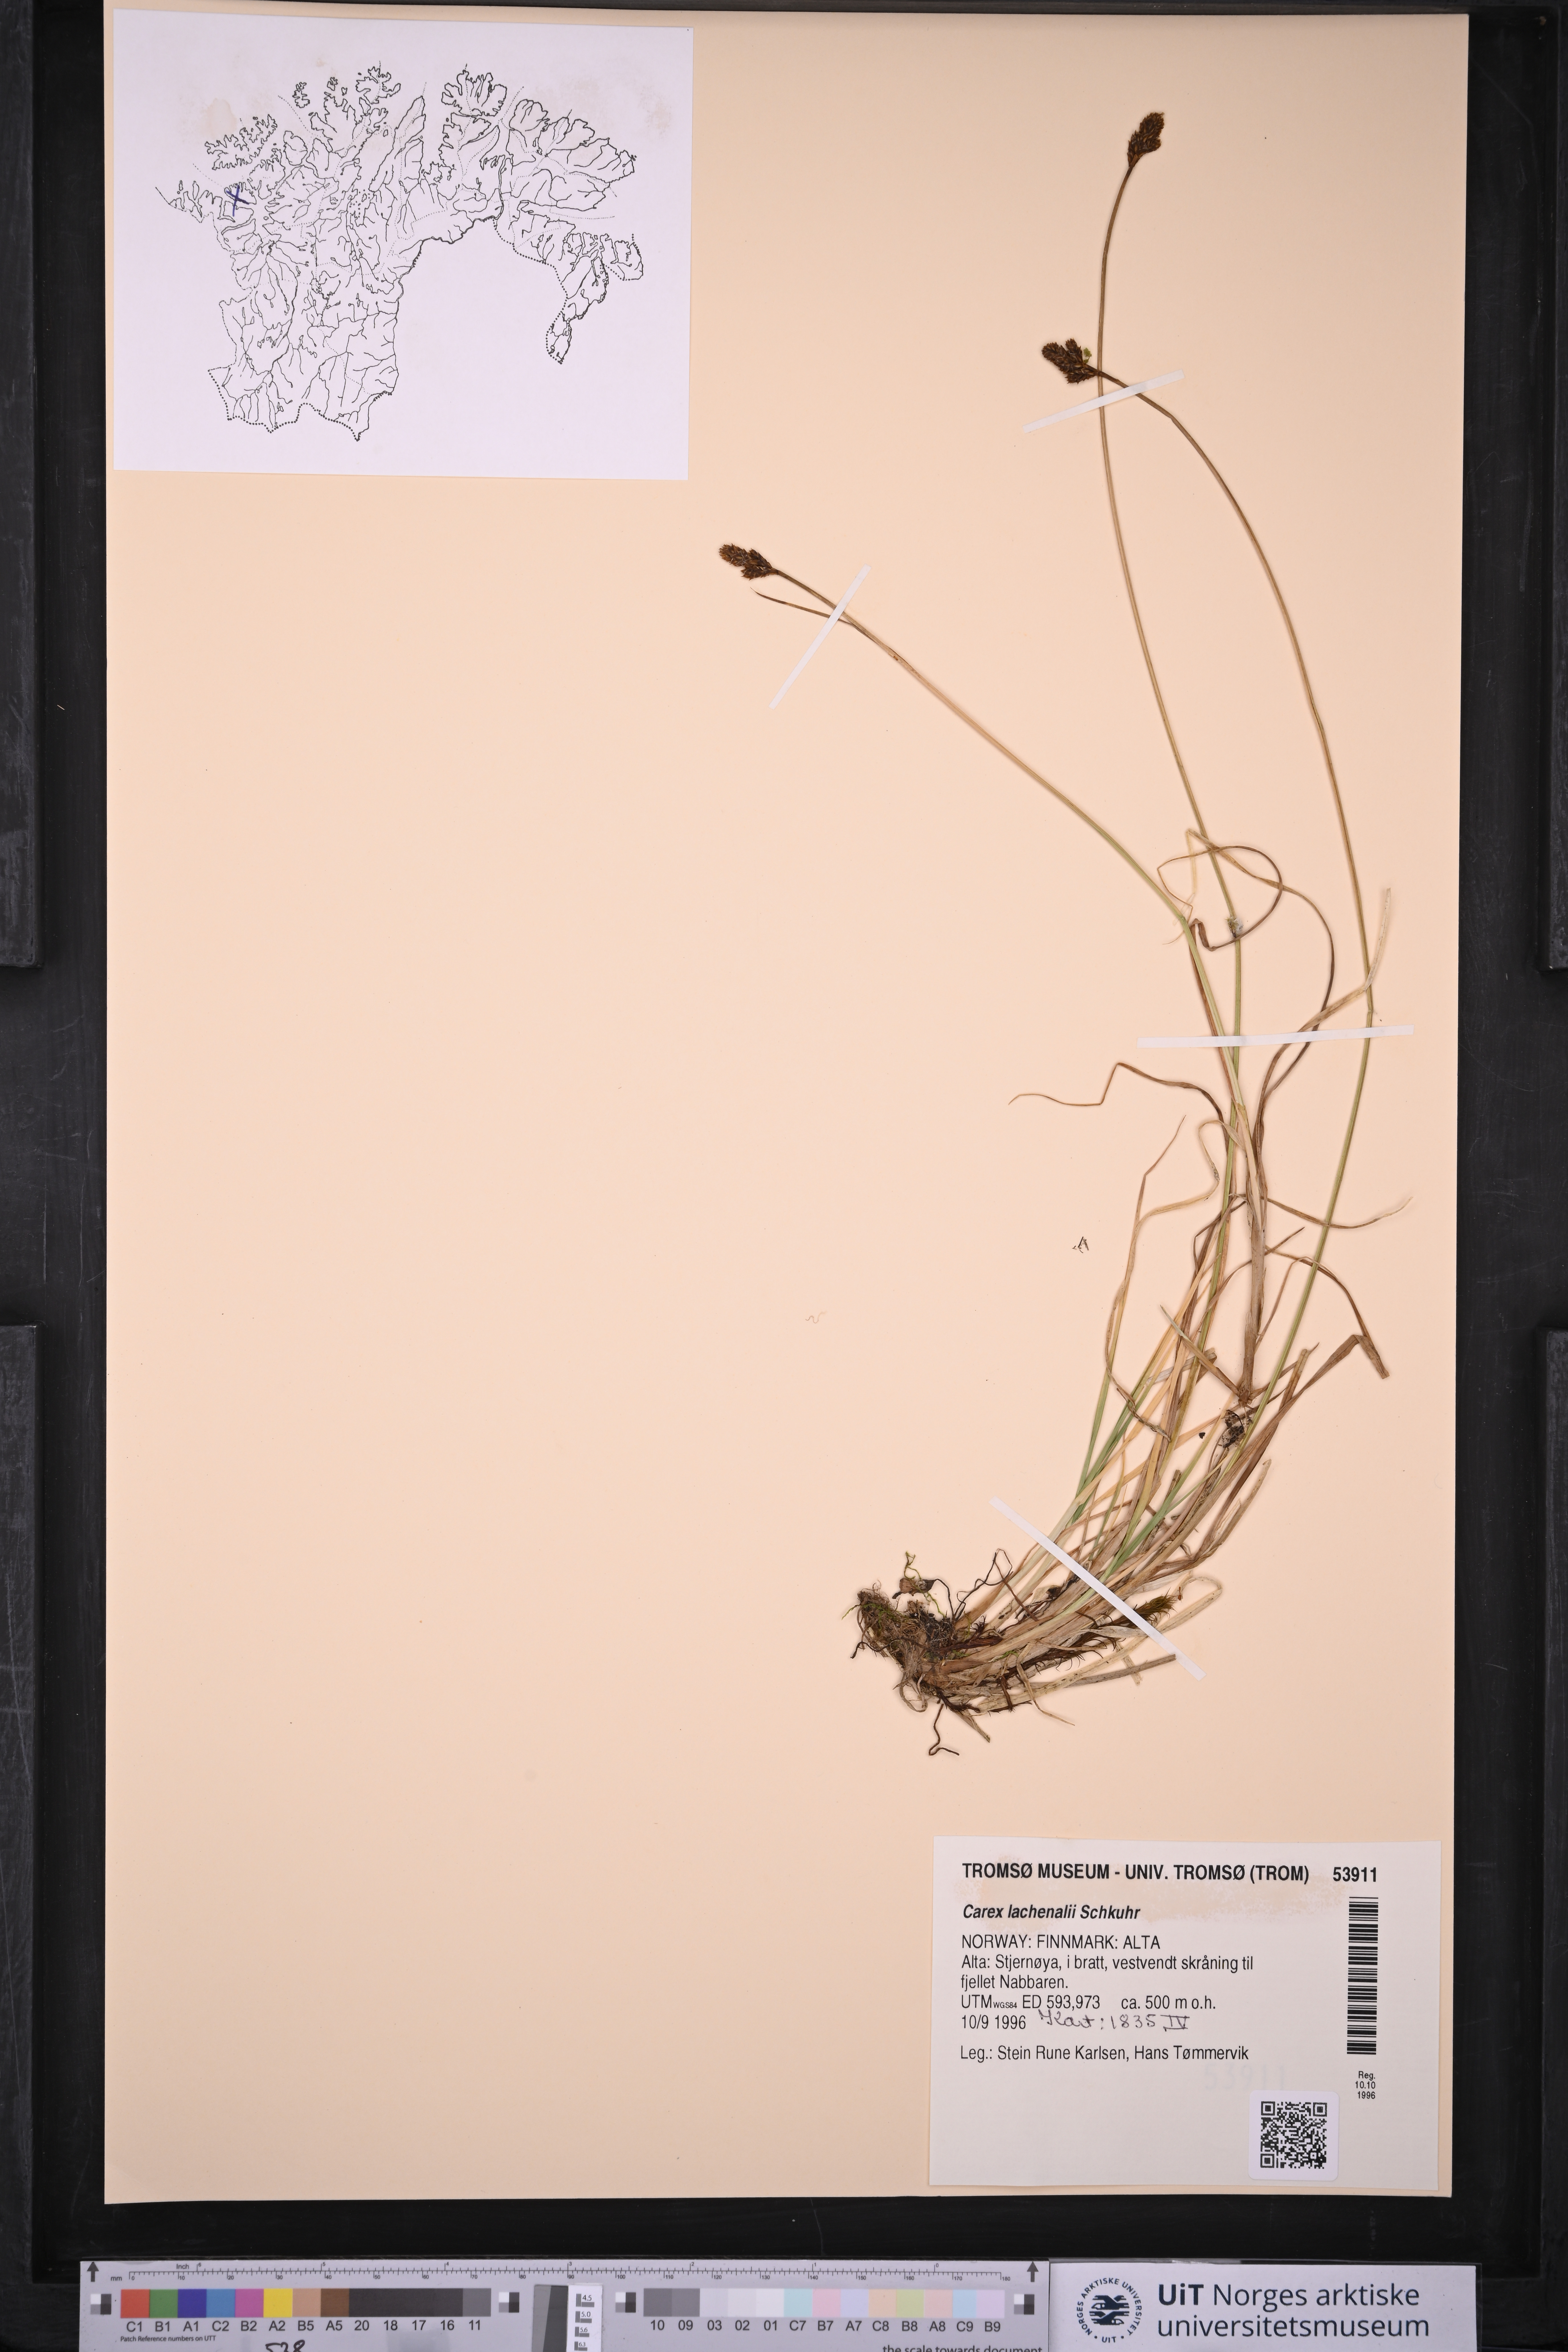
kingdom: Plantae
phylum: Tracheophyta
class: Liliopsida
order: Poales
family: Cyperaceae
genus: Carex
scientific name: Carex lachenalii
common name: Hare's-foot sedge
